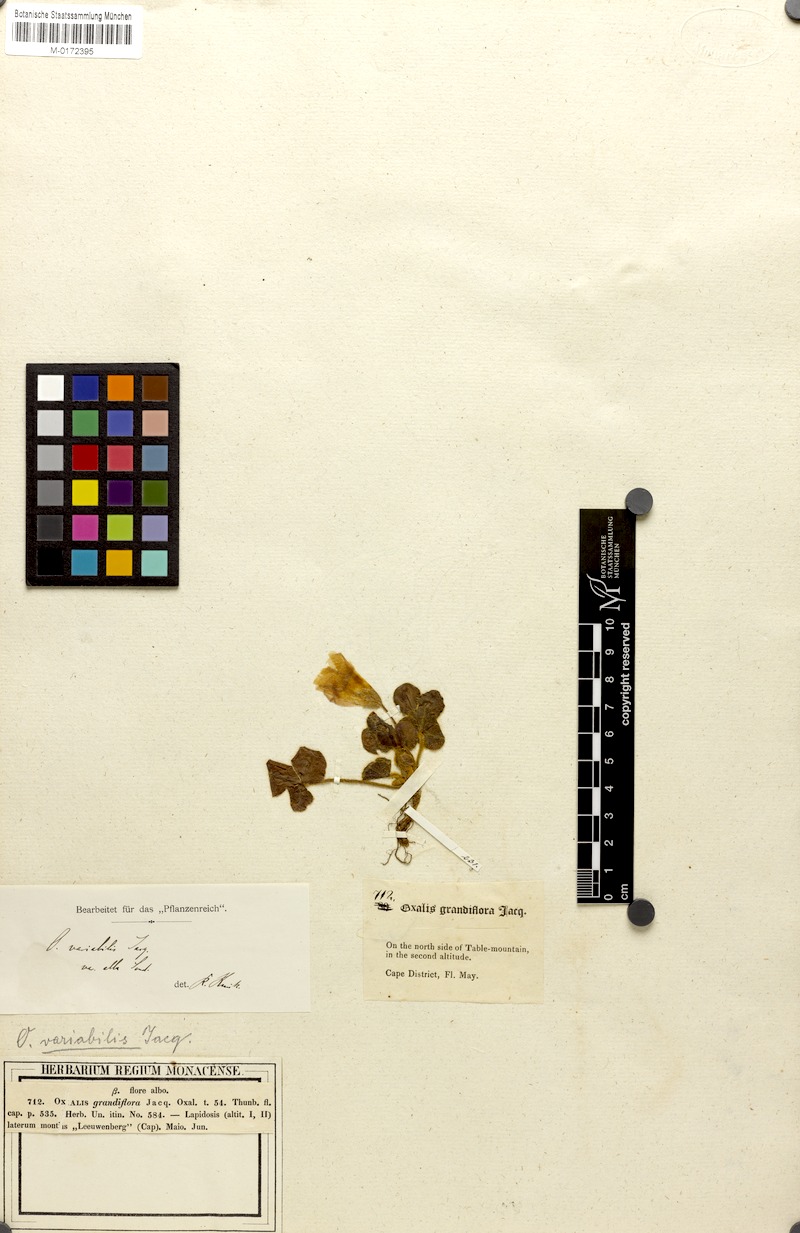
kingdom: Plantae
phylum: Tracheophyta
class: Magnoliopsida
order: Oxalidales
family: Oxalidaceae
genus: Oxalis
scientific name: Oxalis purpurea
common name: Purple woodsorrel
